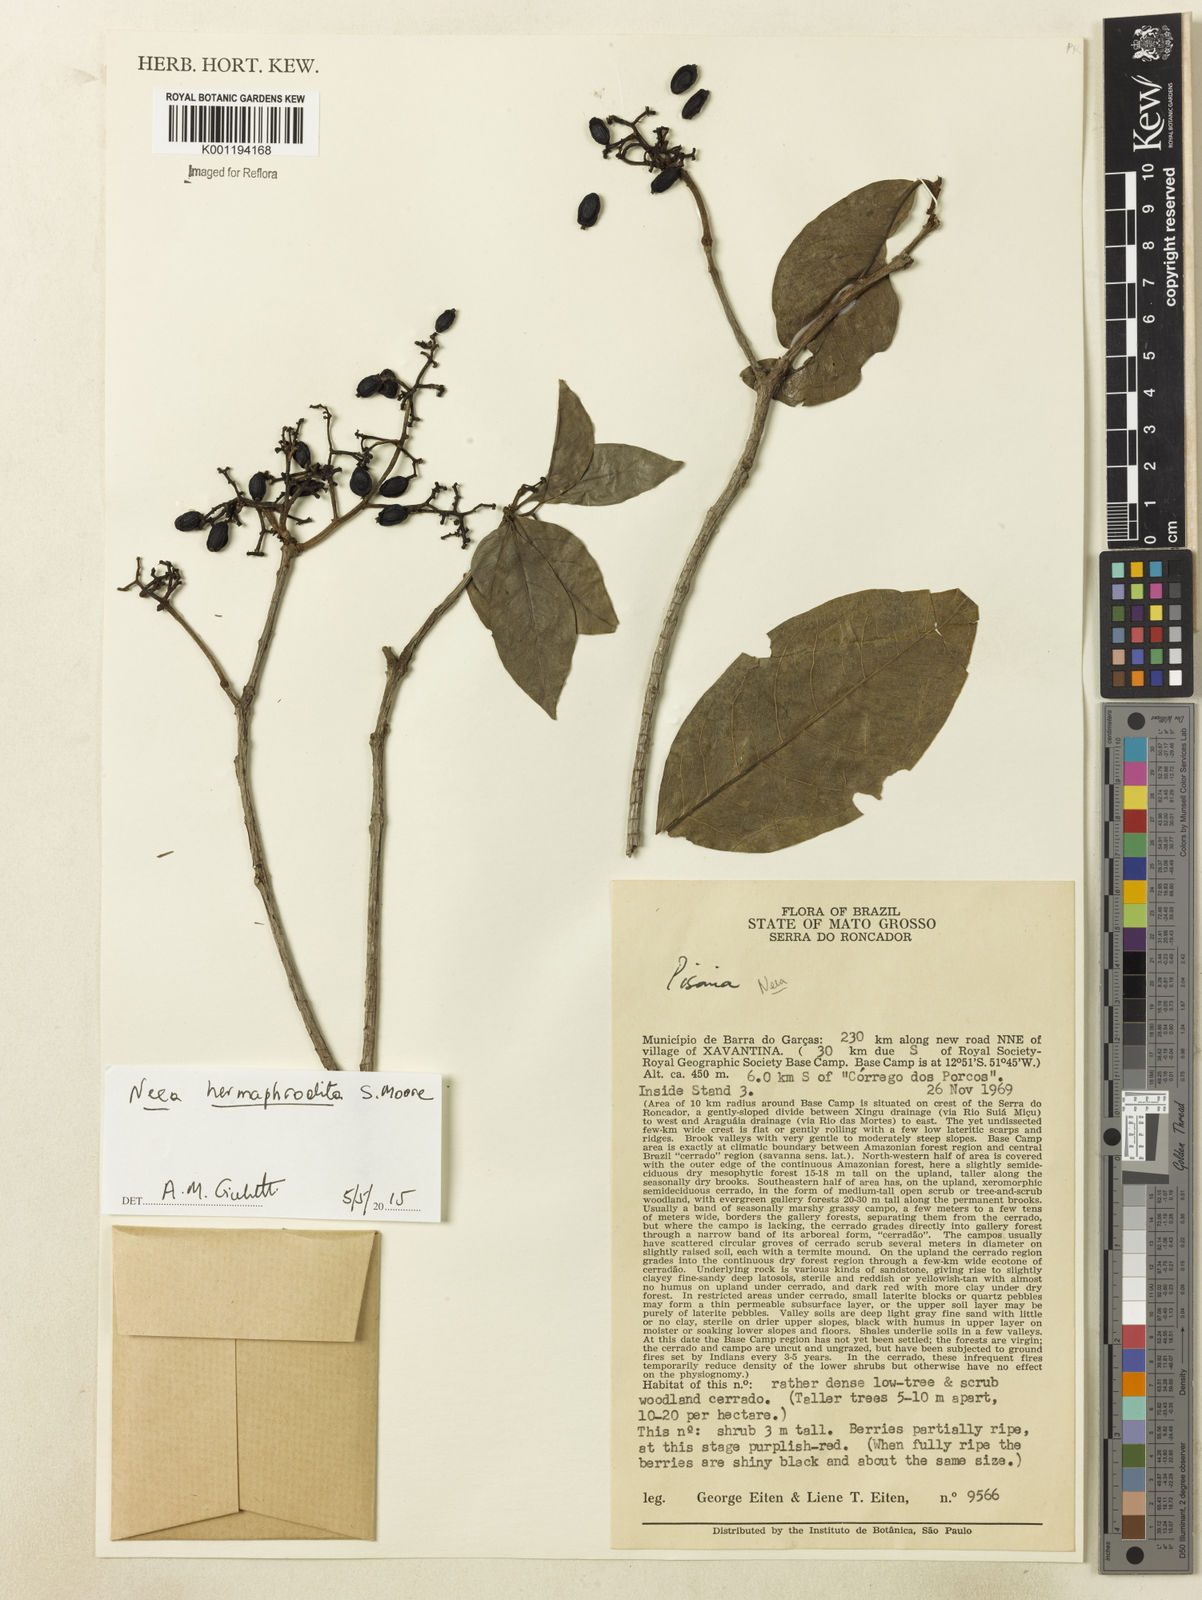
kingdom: Plantae
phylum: Tracheophyta
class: Magnoliopsida
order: Caryophyllales
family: Nyctaginaceae
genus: Neea
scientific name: Neea hermaphrodita
